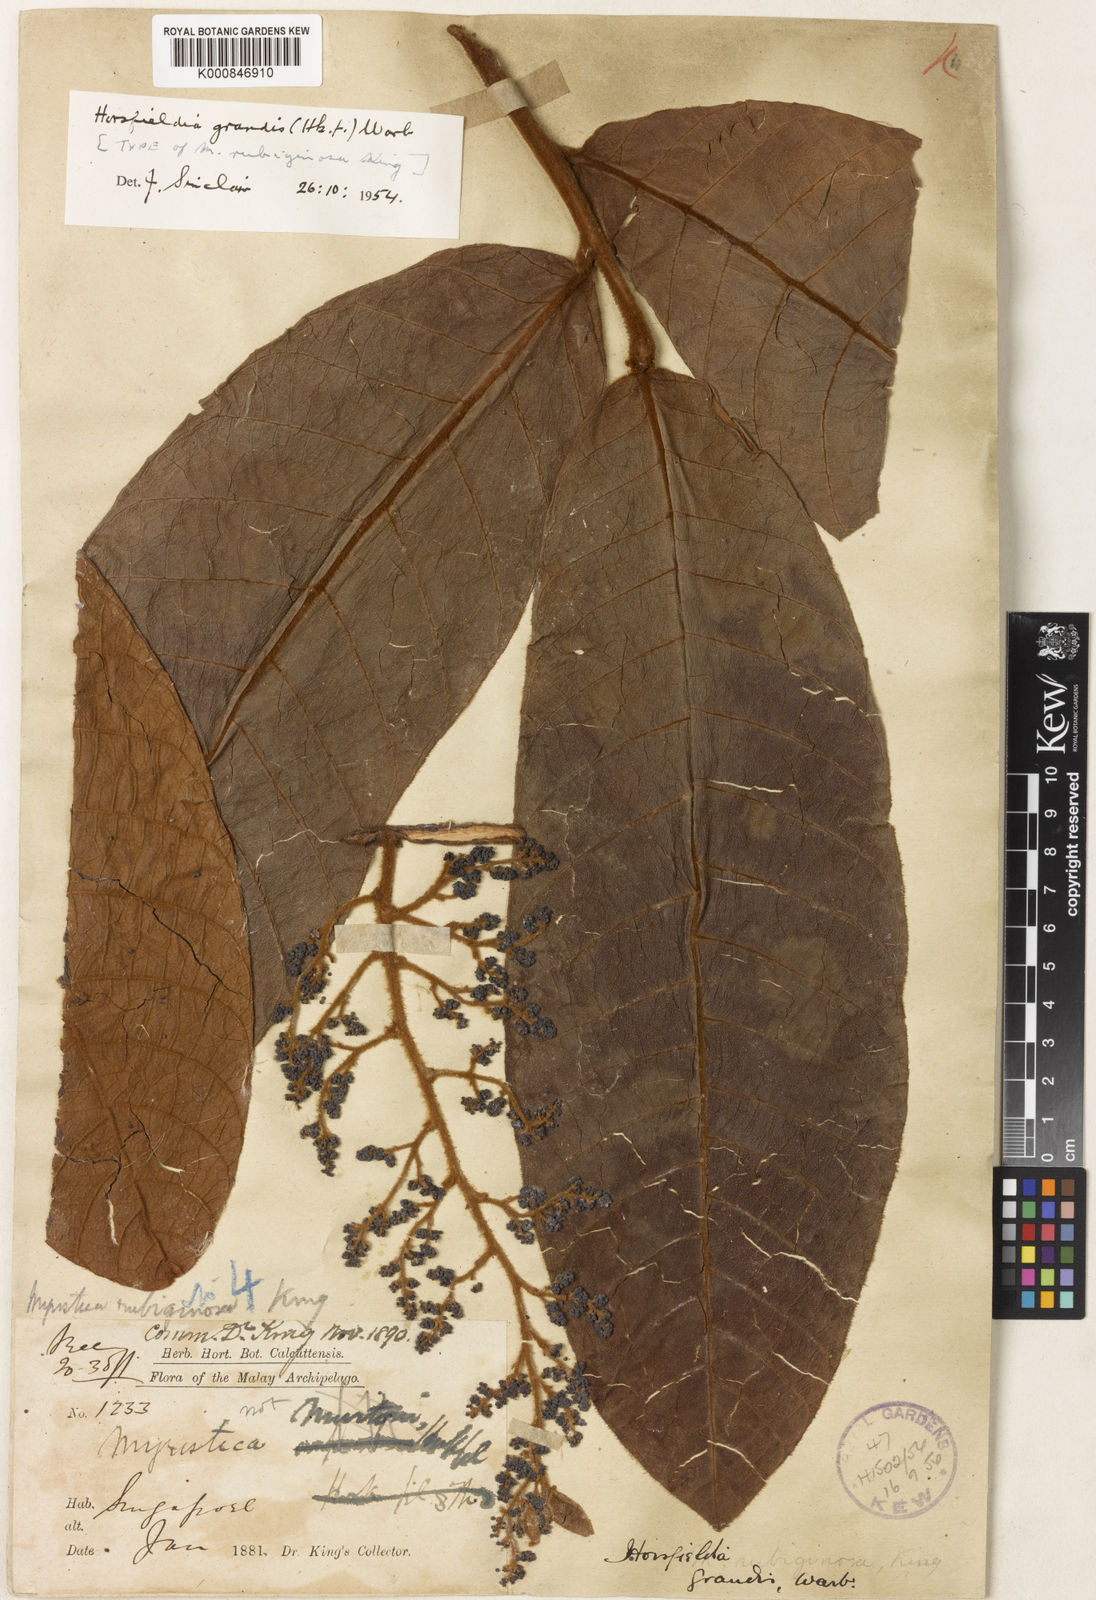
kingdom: Plantae
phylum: Tracheophyta
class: Magnoliopsida
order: Magnoliales
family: Myristicaceae
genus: Horsfieldia
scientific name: Horsfieldia grandis
